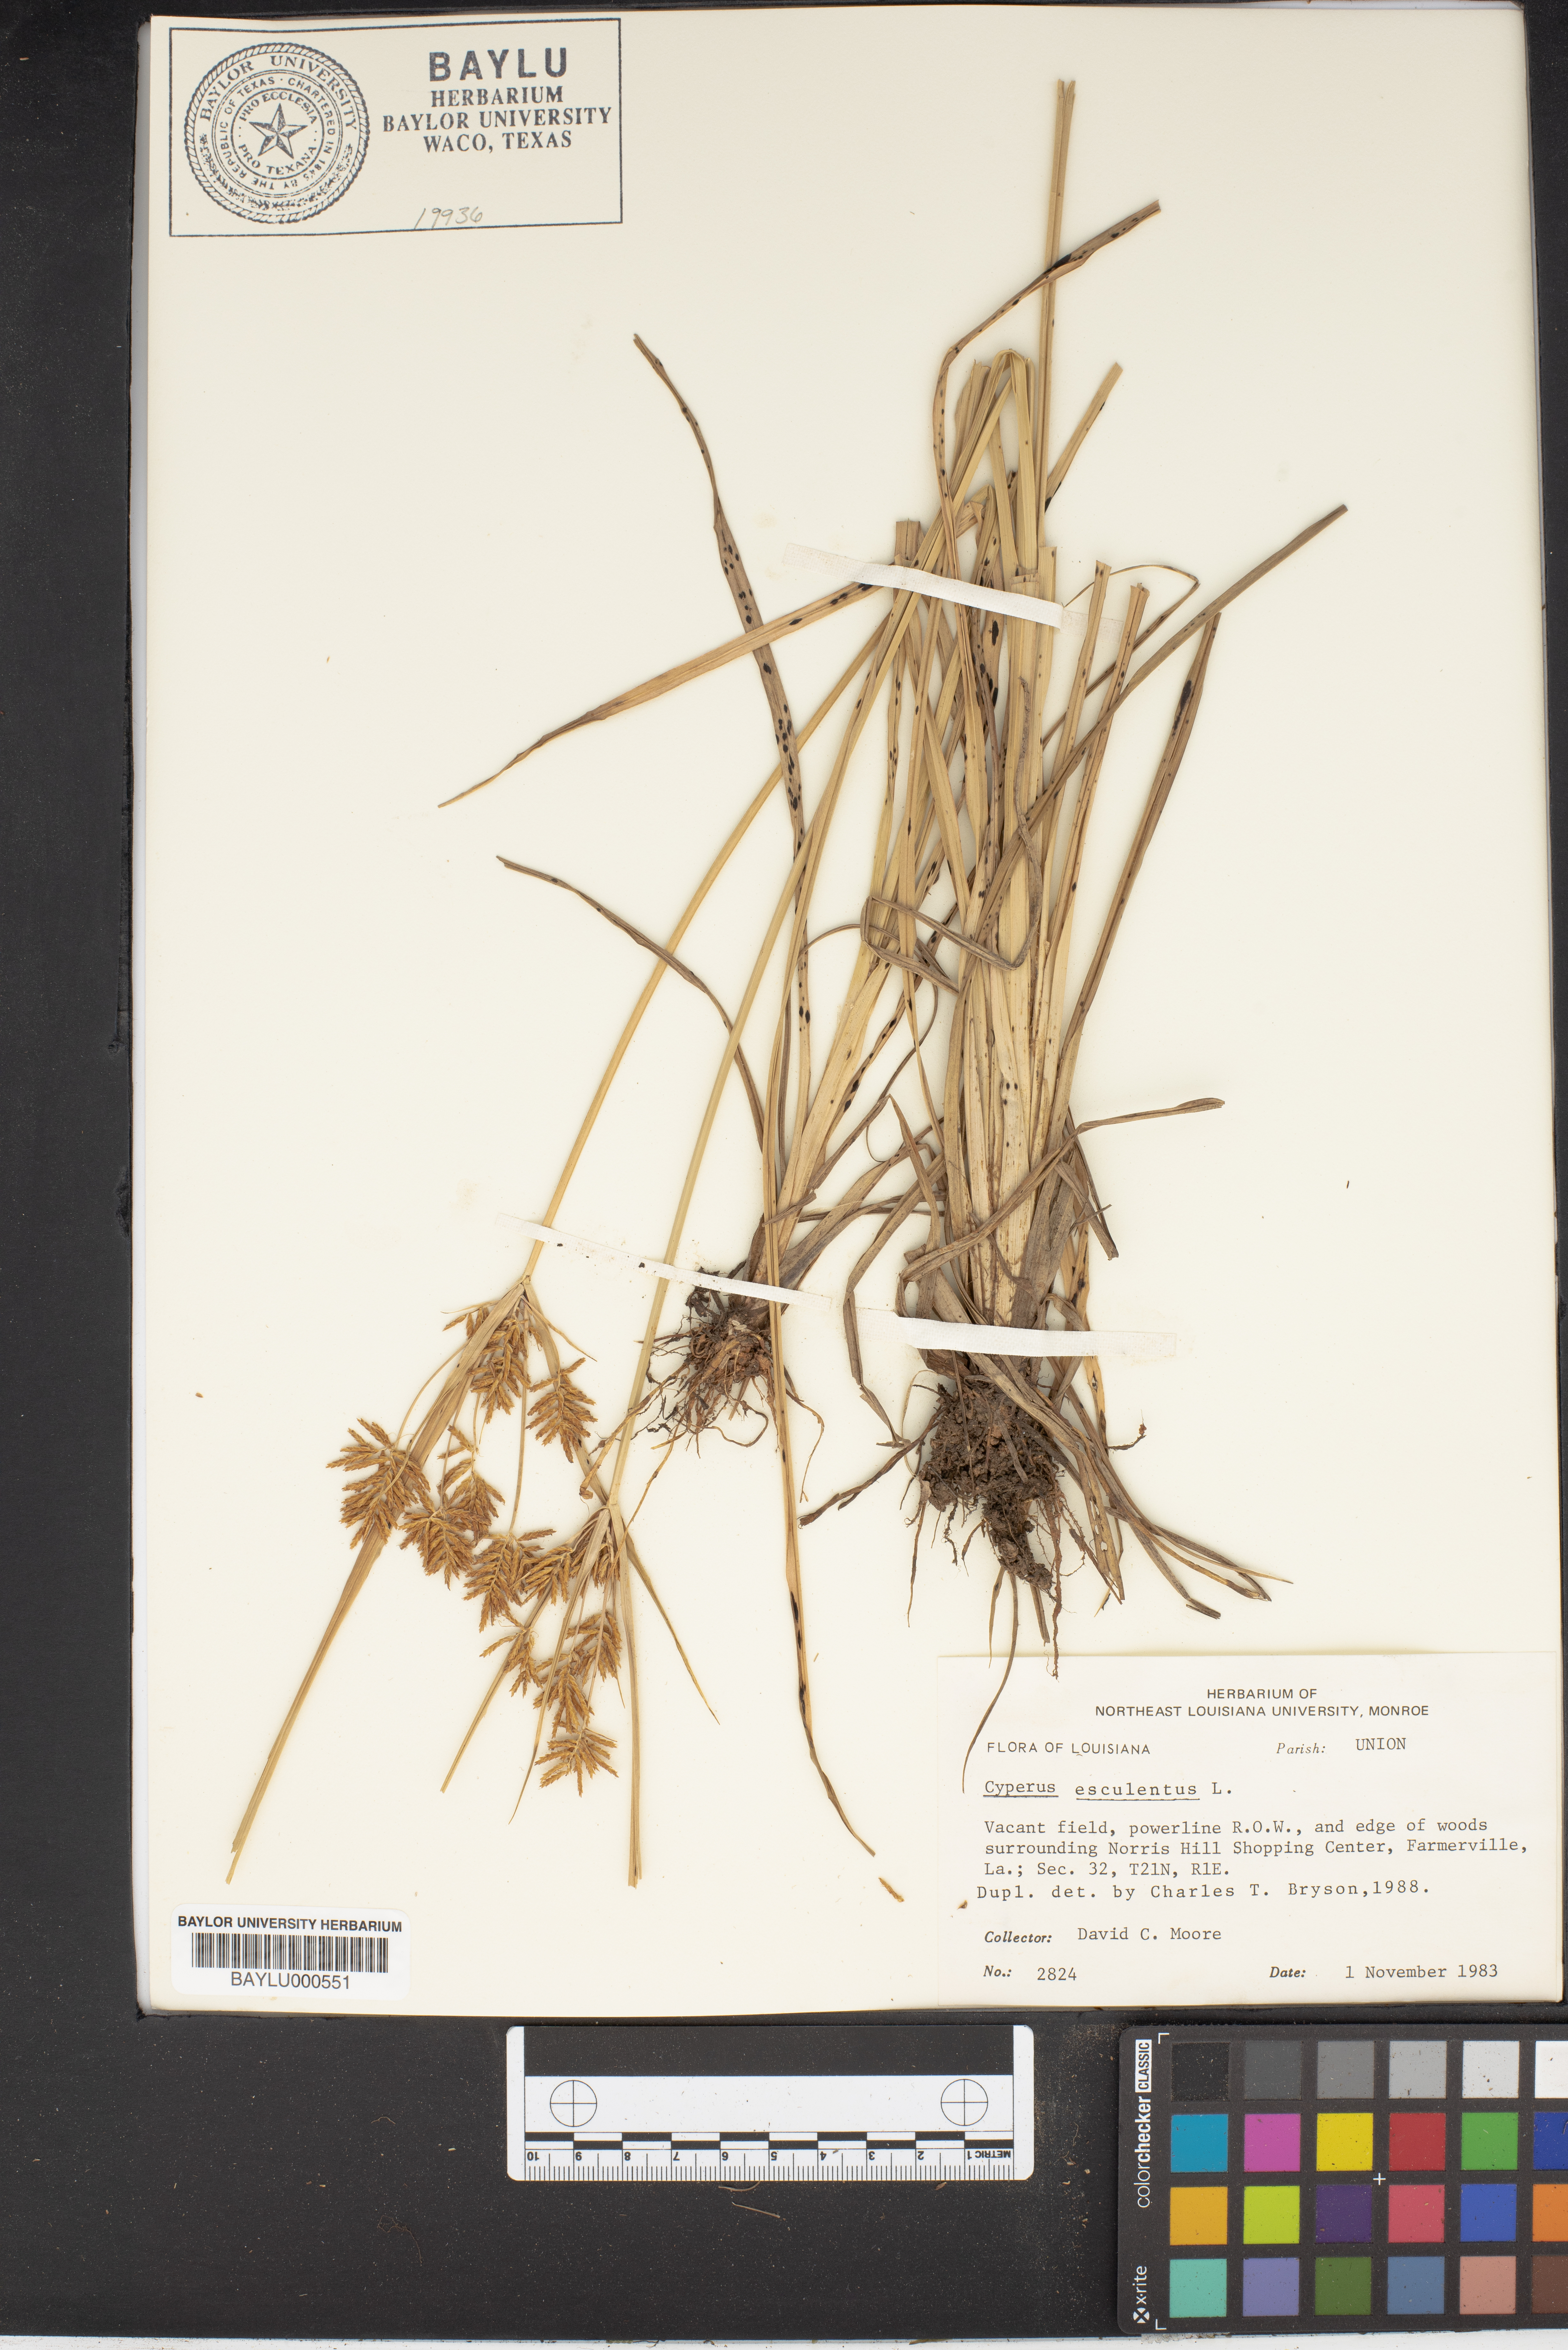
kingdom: Plantae
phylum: Tracheophyta
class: Liliopsida
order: Poales
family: Cyperaceae
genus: Cyperus
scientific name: Cyperus esculentus
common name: Yellow nutsedge
